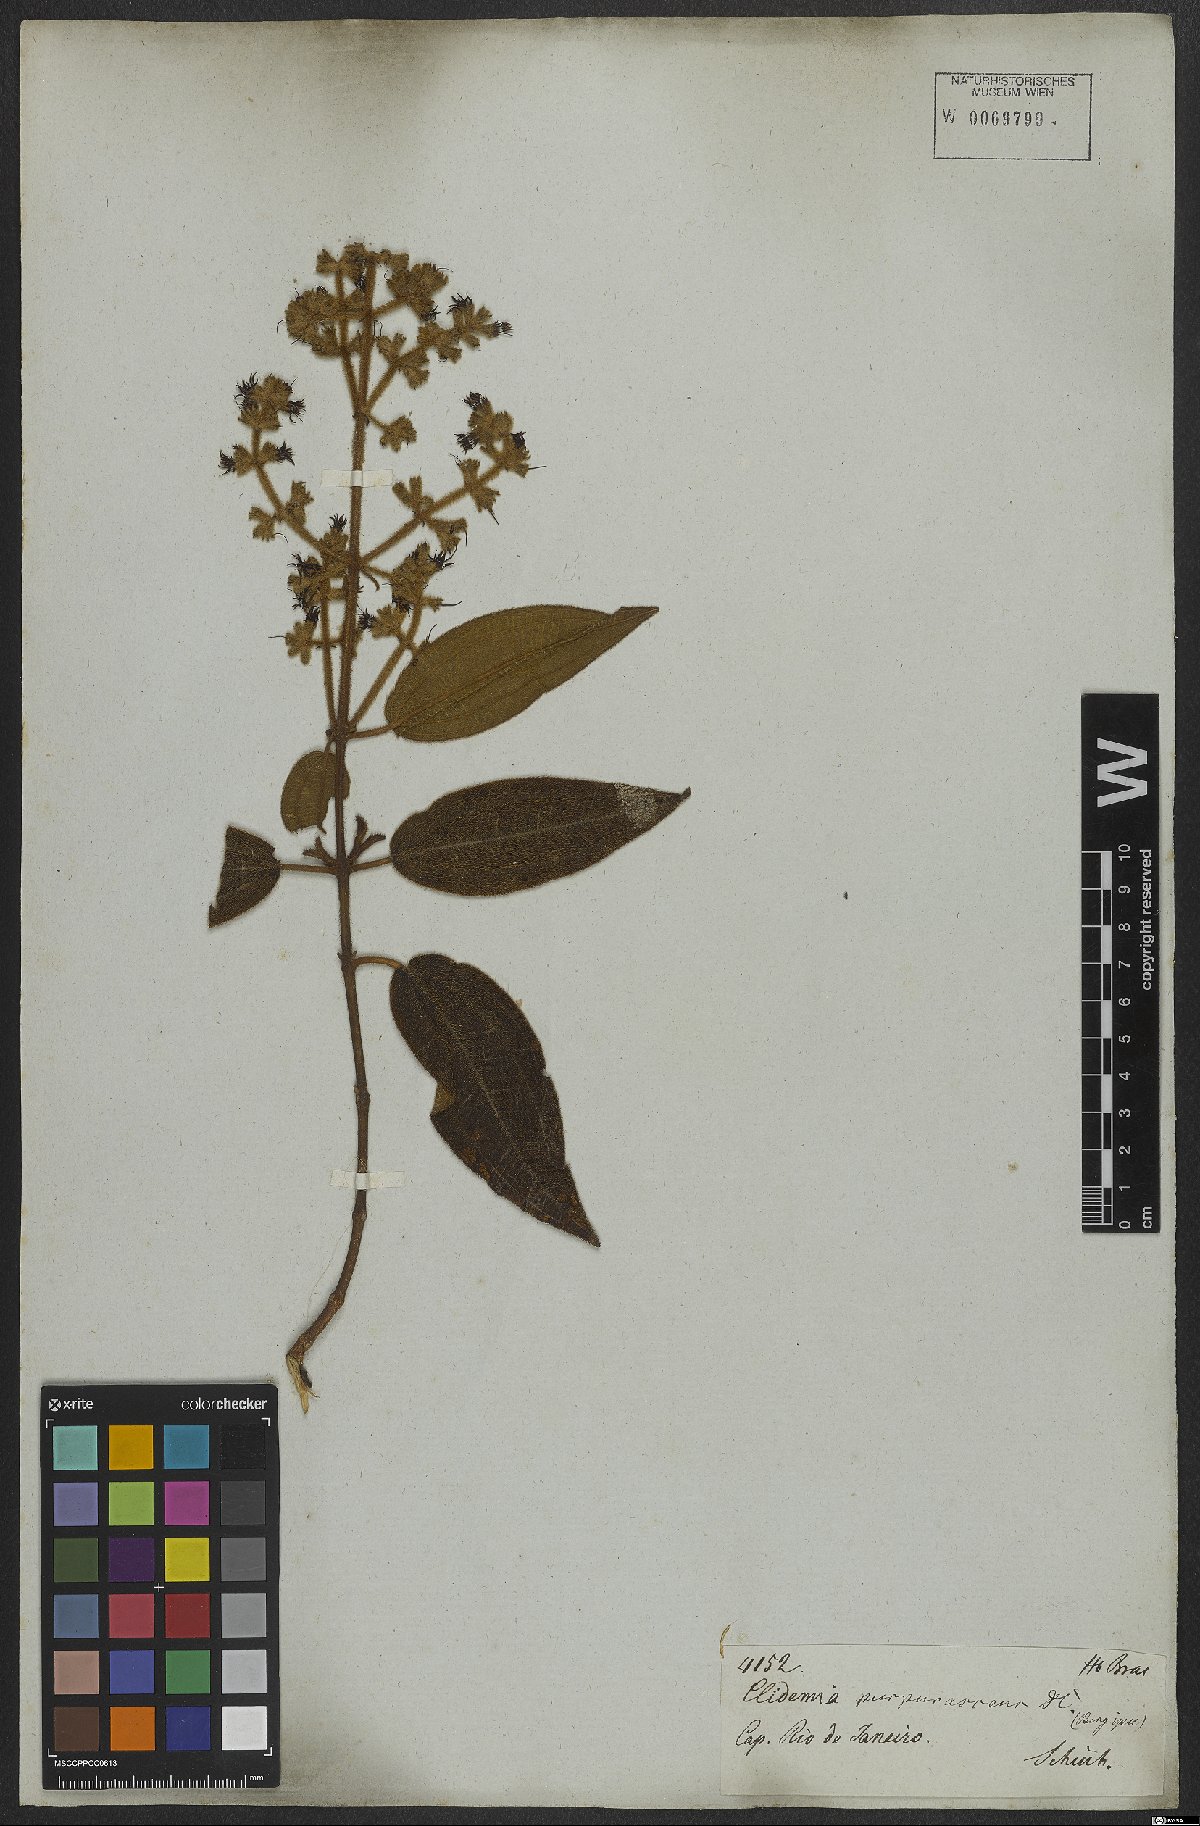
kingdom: Plantae
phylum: Tracheophyta
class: Magnoliopsida
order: Myrtales
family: Melastomataceae
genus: Miconia
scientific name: Miconia microstachya
